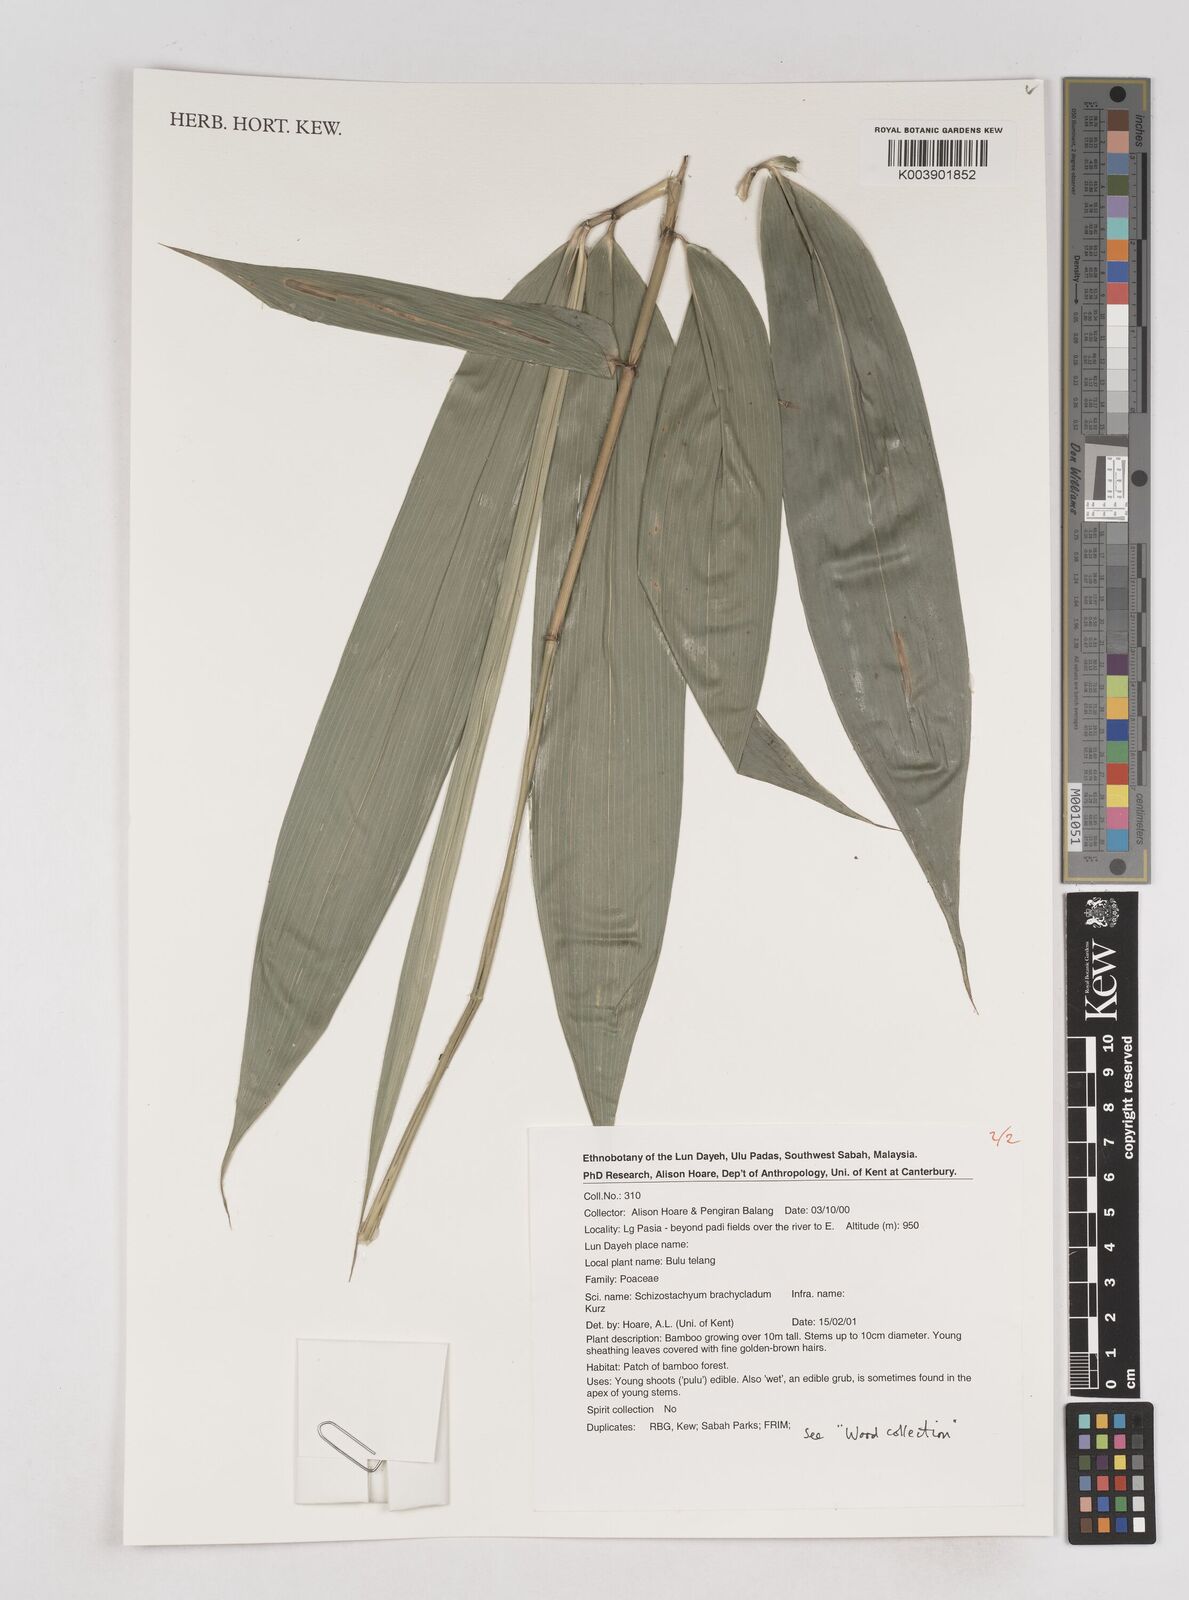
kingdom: Plantae
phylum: Tracheophyta
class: Liliopsida
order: Poales
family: Poaceae
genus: Schizostachyum
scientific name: Schizostachyum brachycladum
